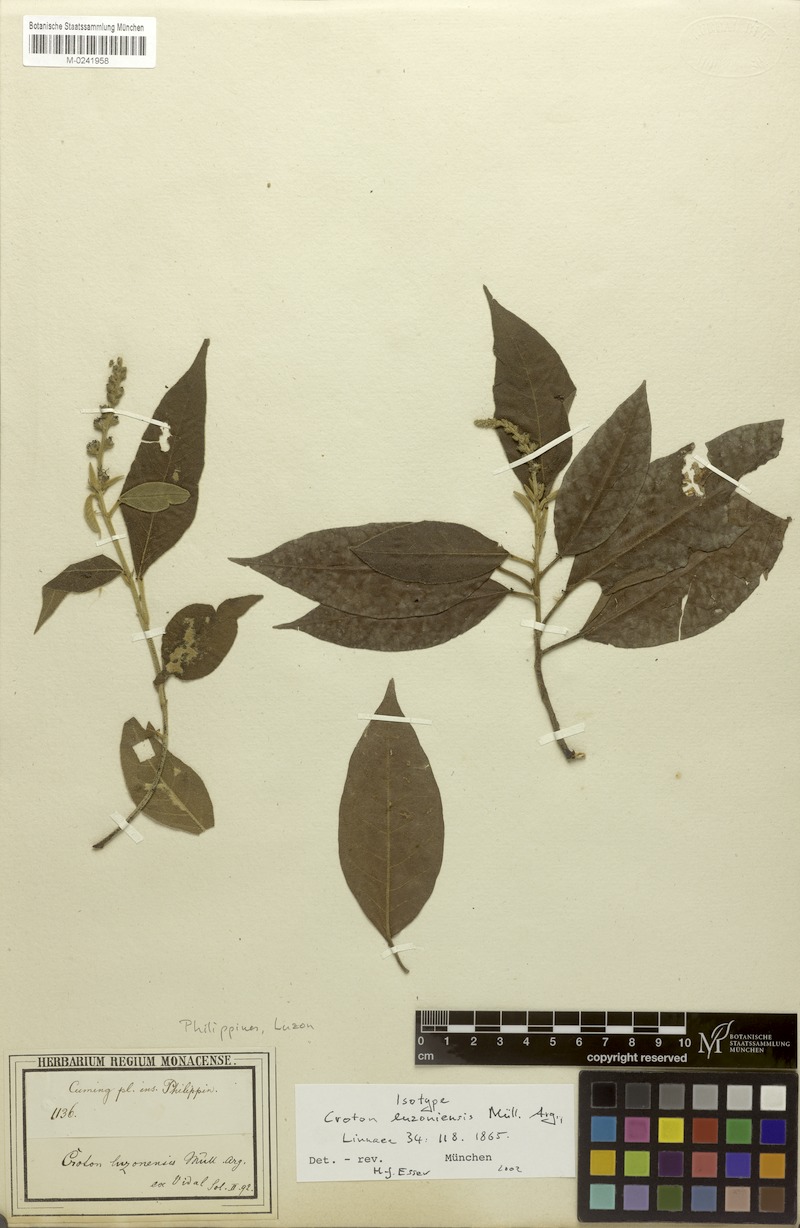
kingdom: Plantae
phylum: Tracheophyta
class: Magnoliopsida
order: Malpighiales
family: Euphorbiaceae
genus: Croton
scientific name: Croton luzoniensis
